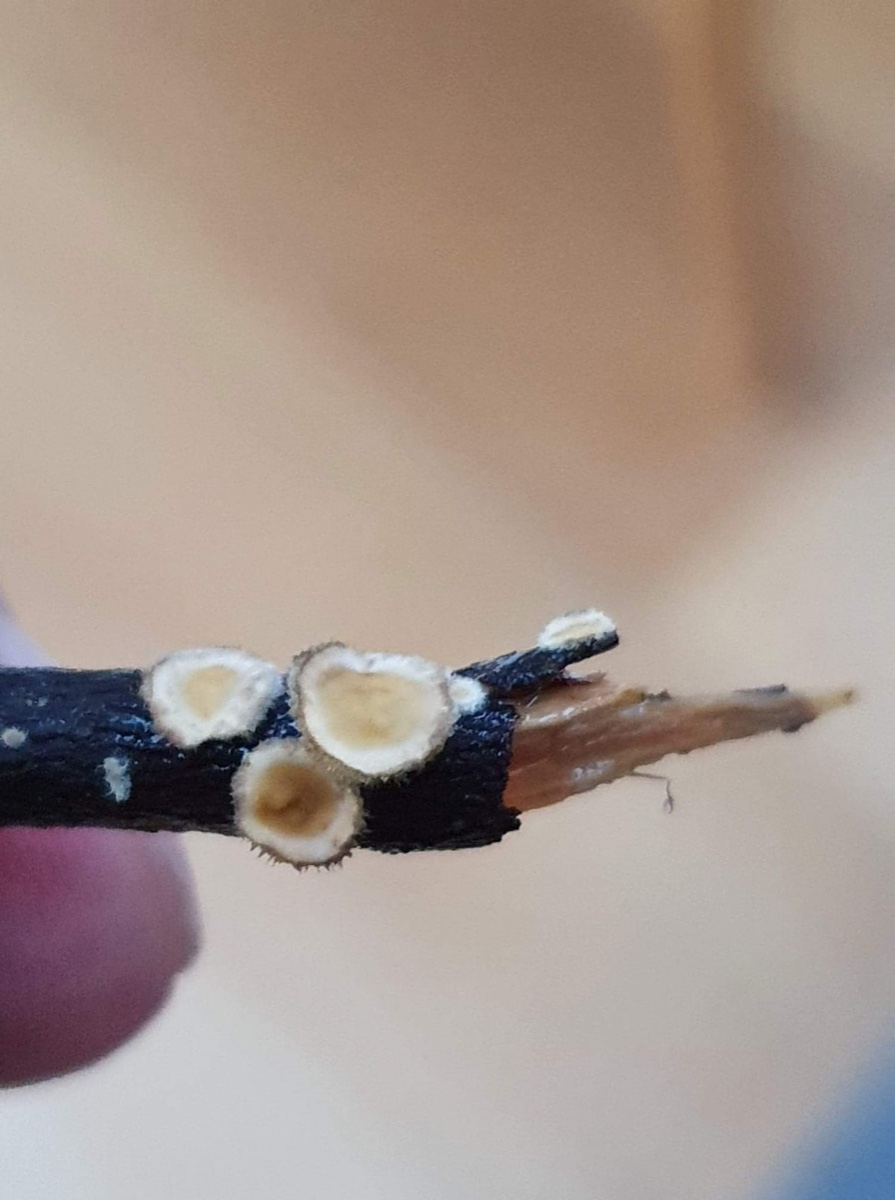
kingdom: Fungi
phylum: Basidiomycota
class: Agaricomycetes
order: Russulales
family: Stereaceae
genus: Stereum
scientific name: Stereum hirsutum
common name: håret lædersvamp
